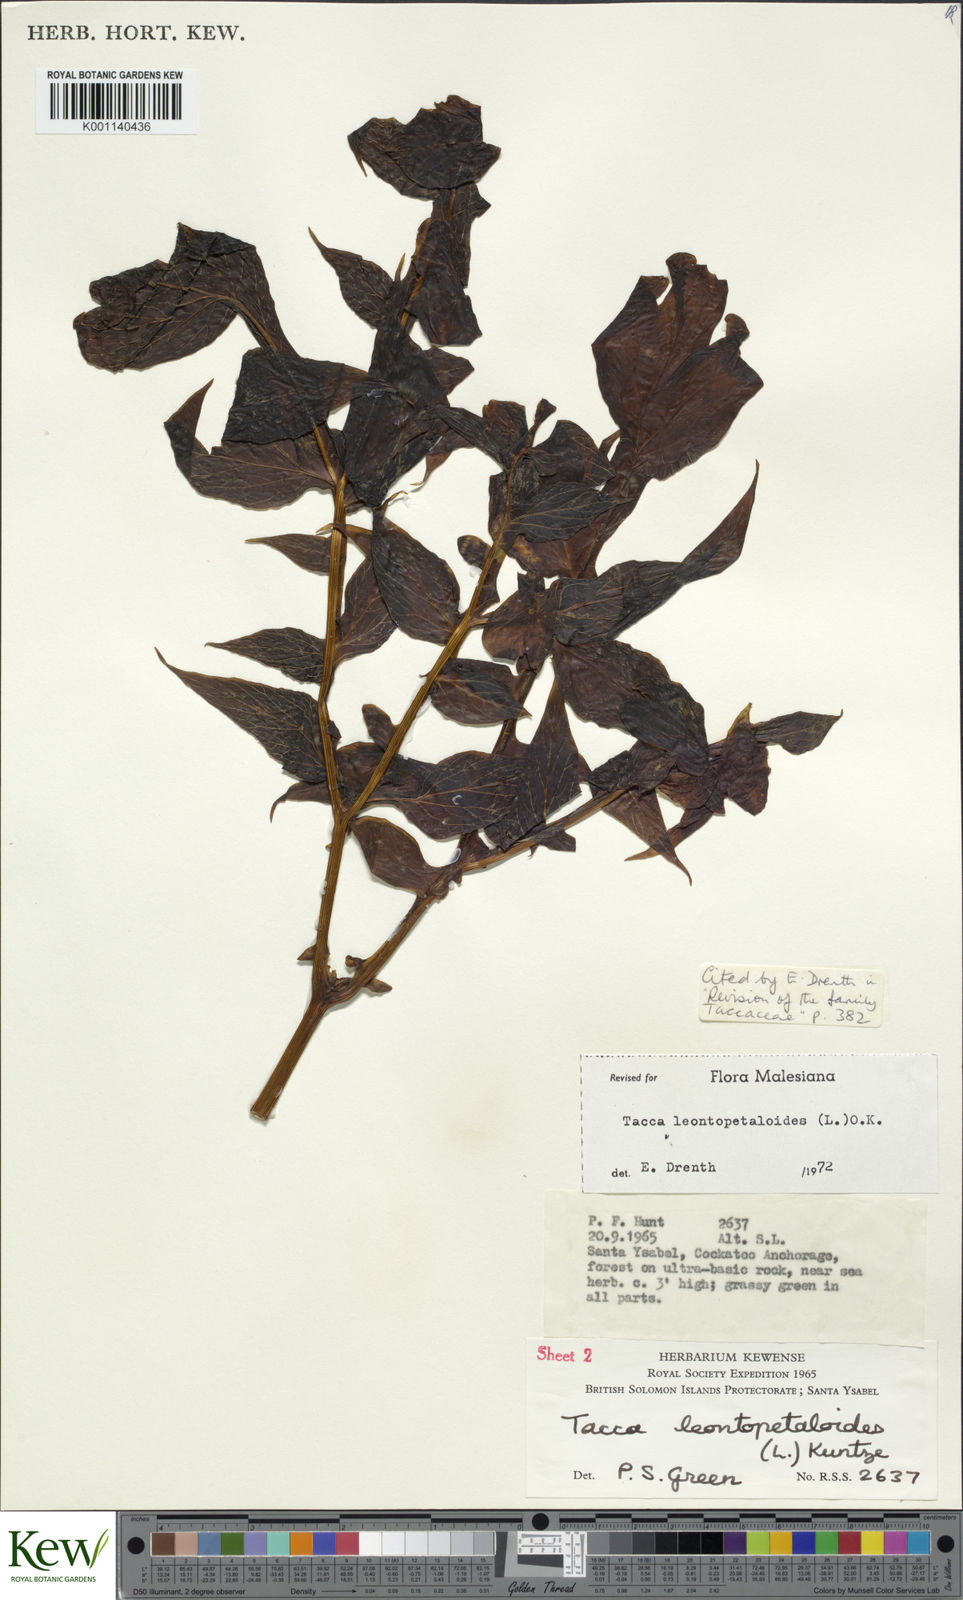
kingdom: Plantae
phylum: Tracheophyta
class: Liliopsida
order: Dioscoreales
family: Dioscoreaceae
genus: Tacca
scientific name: Tacca leontopetaloides
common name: Arrowroot
